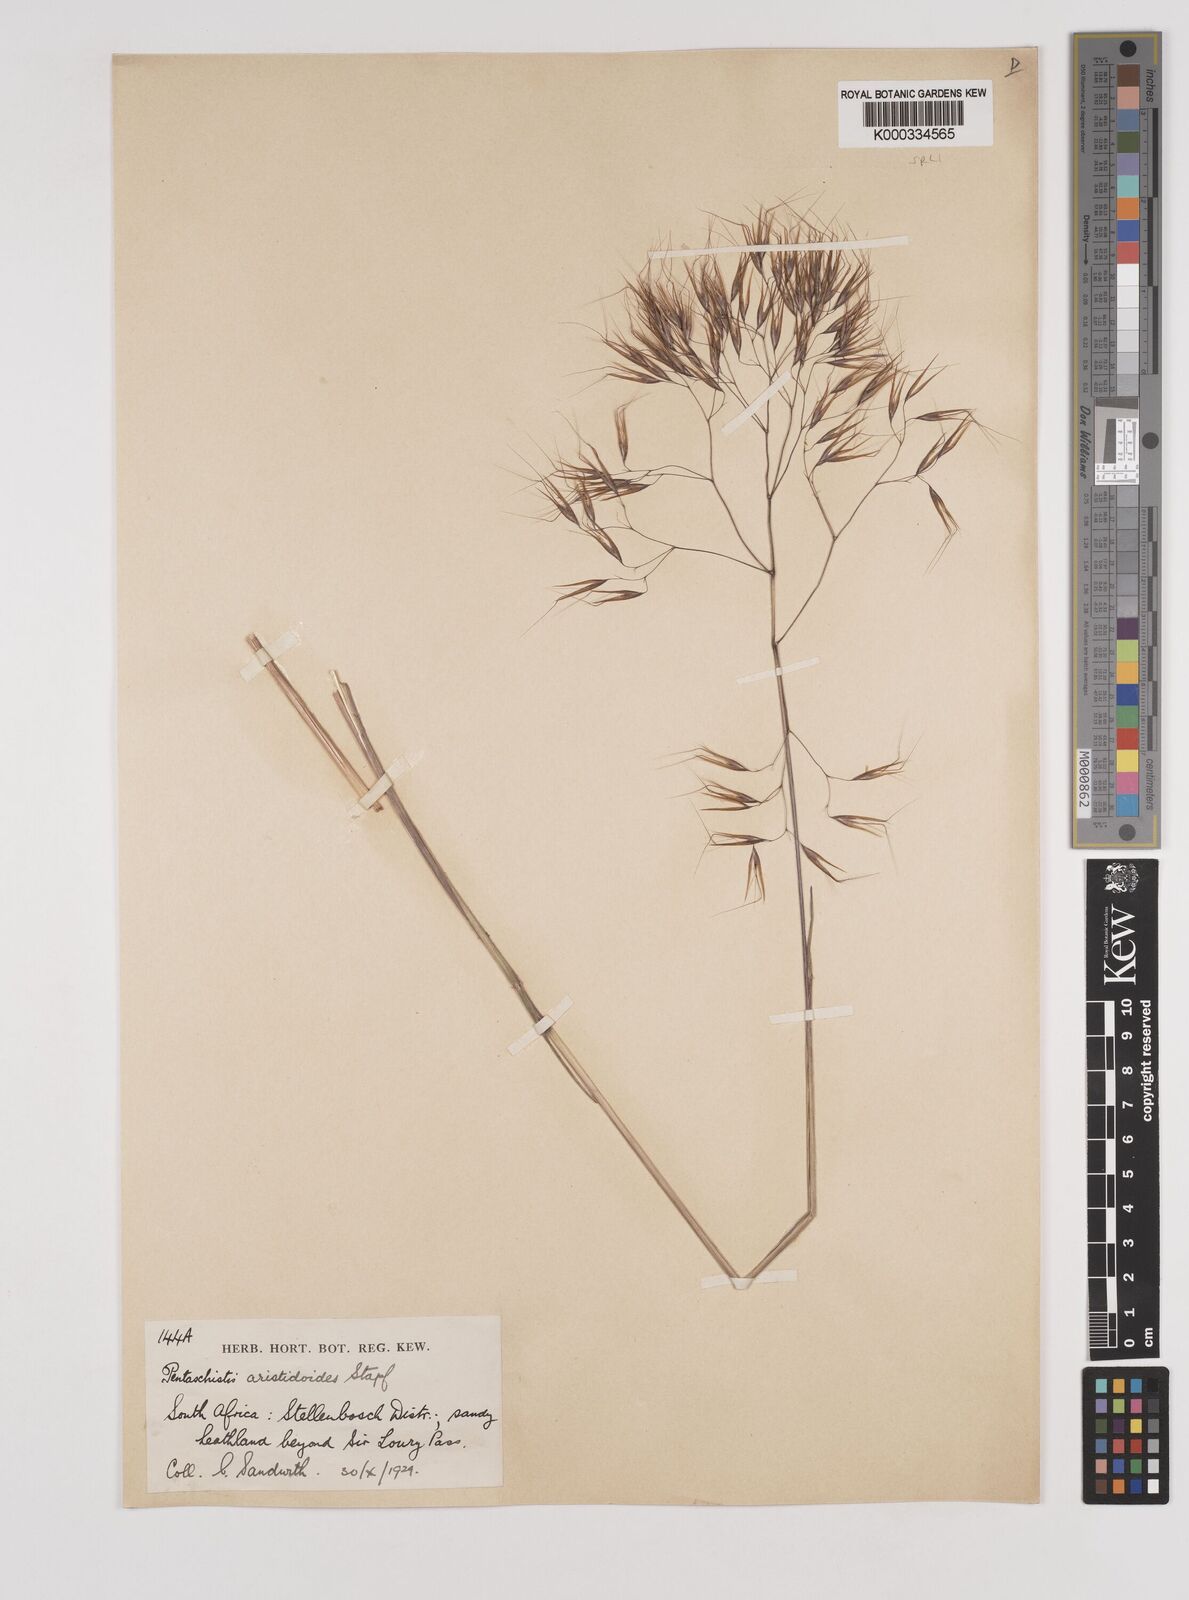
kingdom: Plantae
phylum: Tracheophyta
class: Liliopsida
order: Poales
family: Poaceae
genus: Pentameris
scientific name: Pentameris aristidoides
